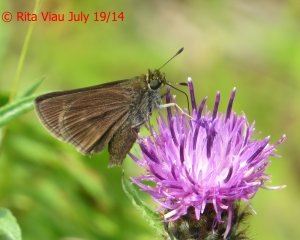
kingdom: Animalia
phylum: Arthropoda
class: Insecta
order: Lepidoptera
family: Hesperiidae
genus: Euphyes
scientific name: Euphyes vestris
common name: Dun Skipper
